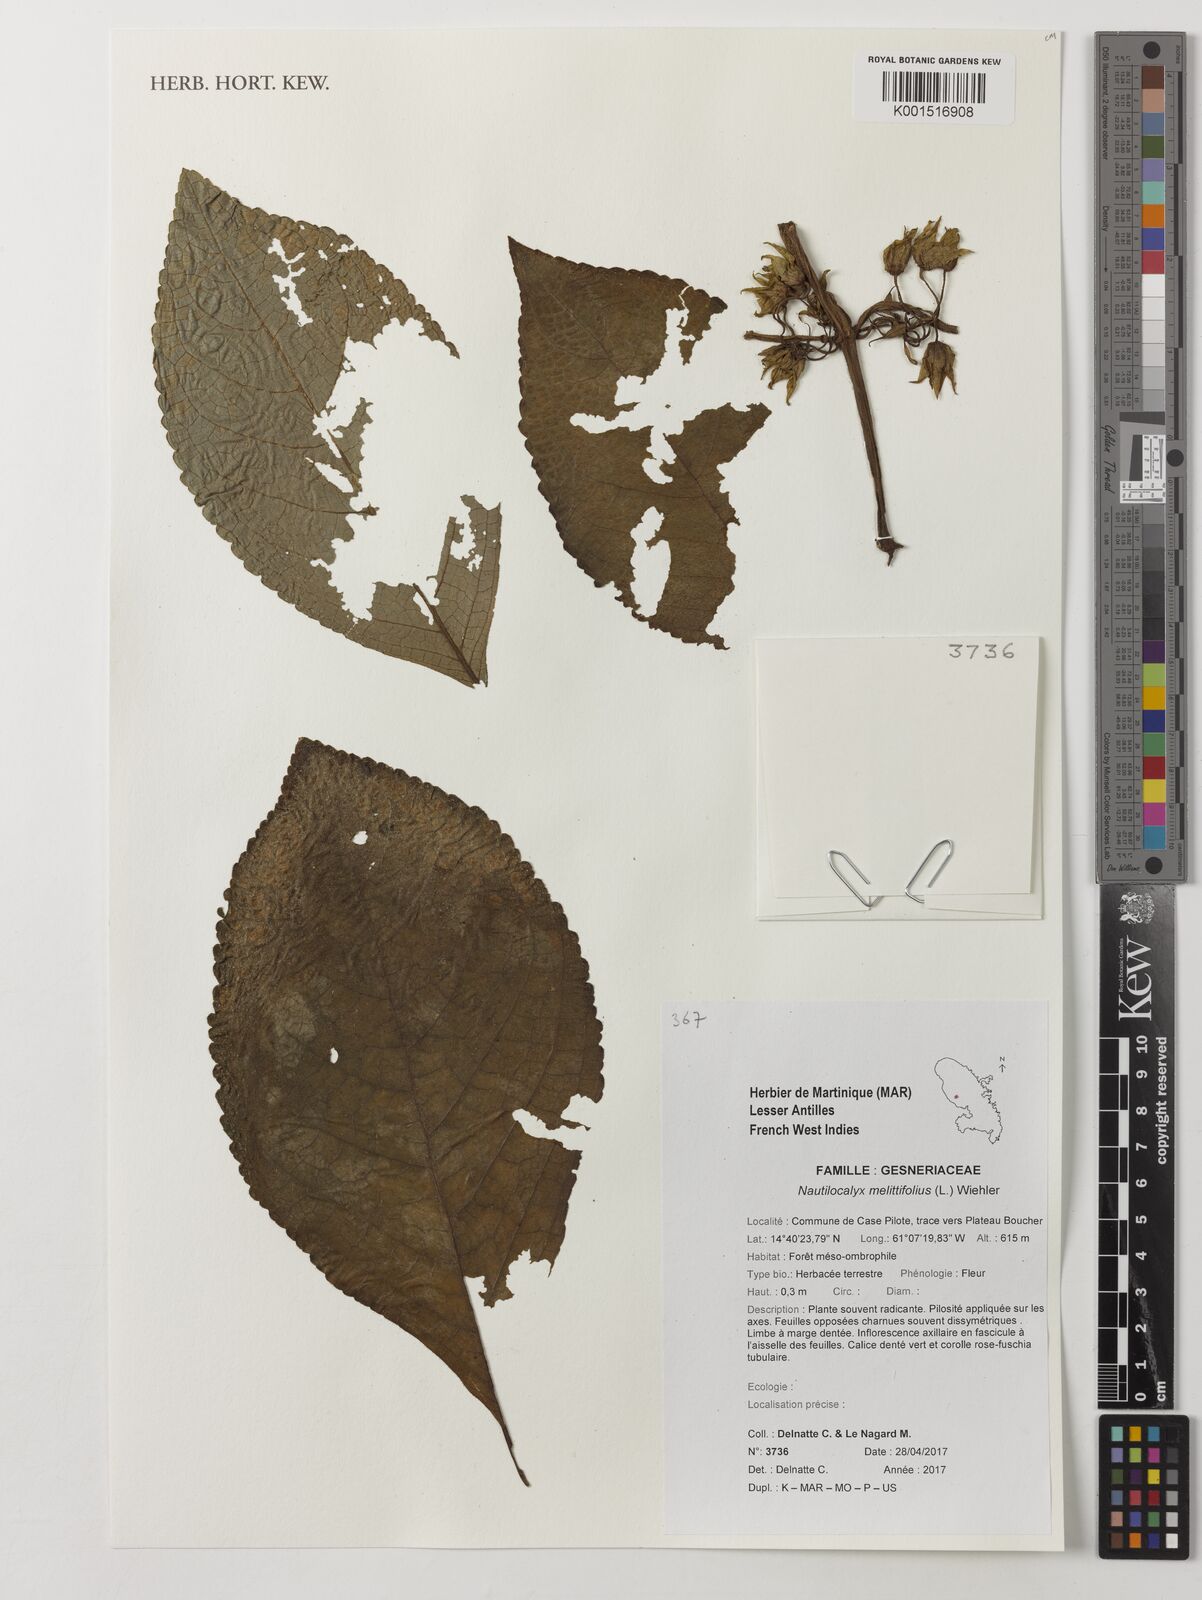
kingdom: Plantae
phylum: Tracheophyta
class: Magnoliopsida
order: Lamiales
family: Gesneriaceae
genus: Chrysothemis
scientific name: Chrysothemis melittifolia
